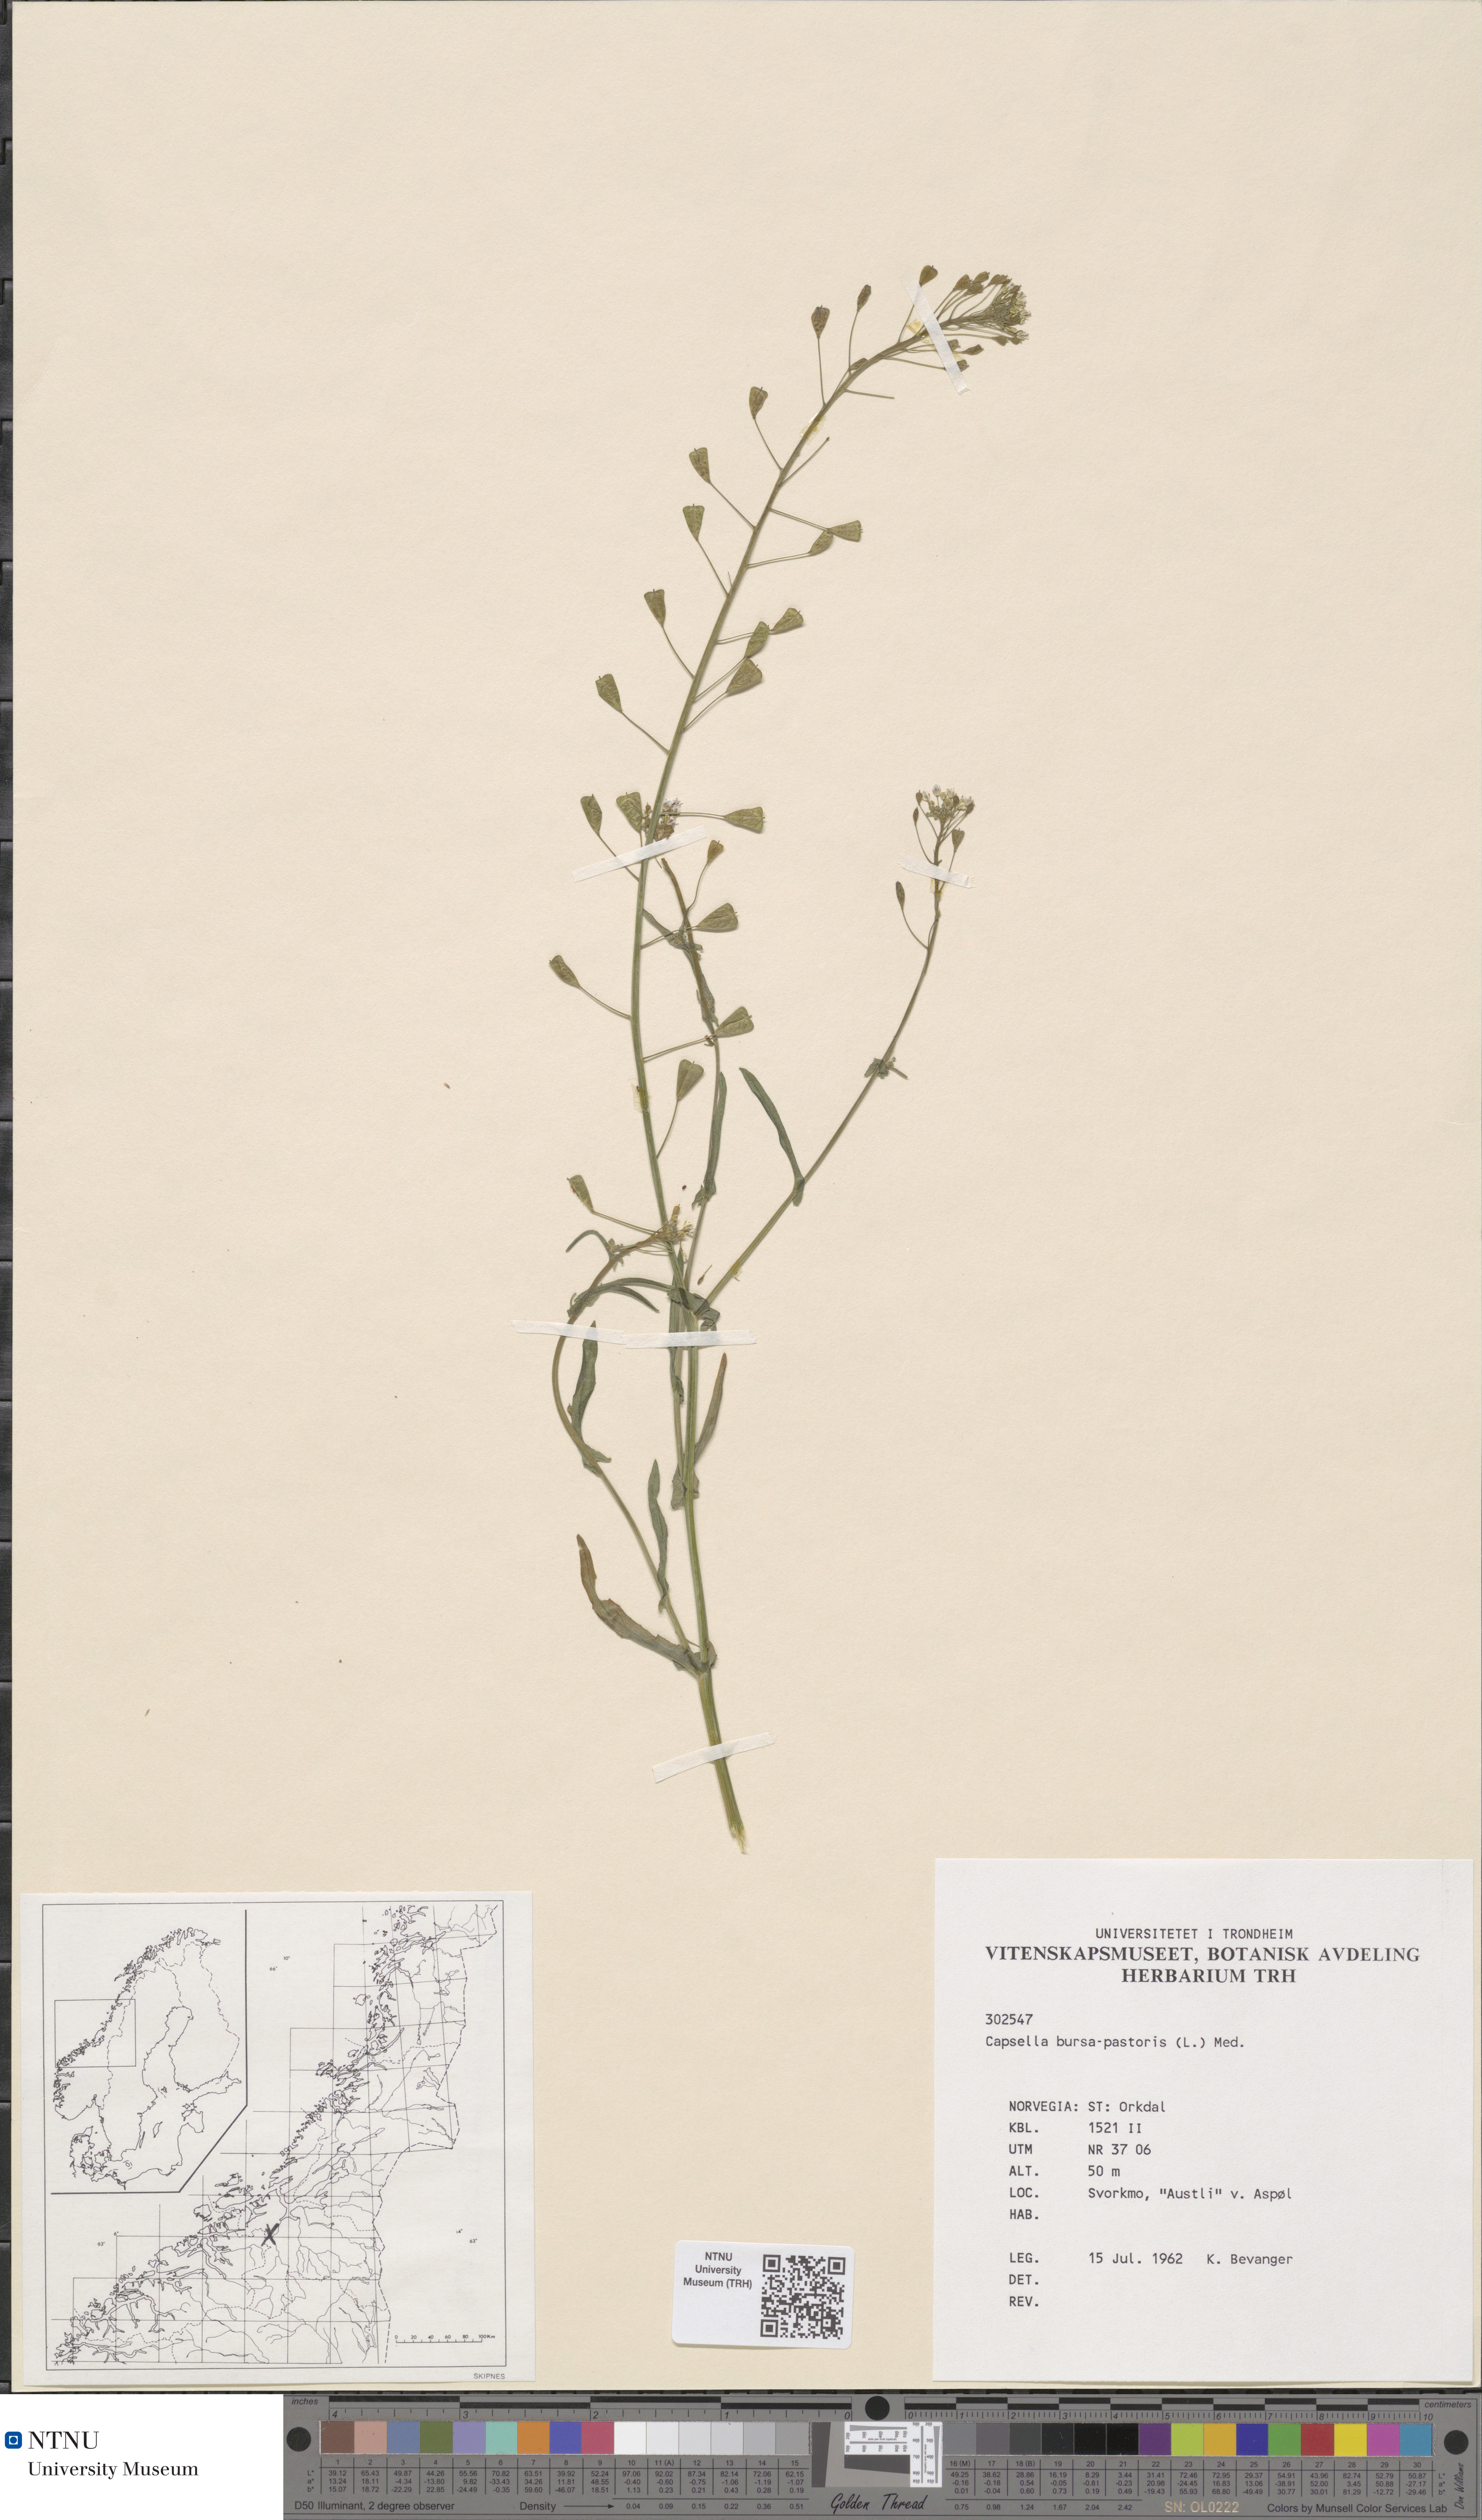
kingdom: Plantae
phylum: Tracheophyta
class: Magnoliopsida
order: Brassicales
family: Brassicaceae
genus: Capsella
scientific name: Capsella bursa-pastoris
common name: Shepherd's purse
